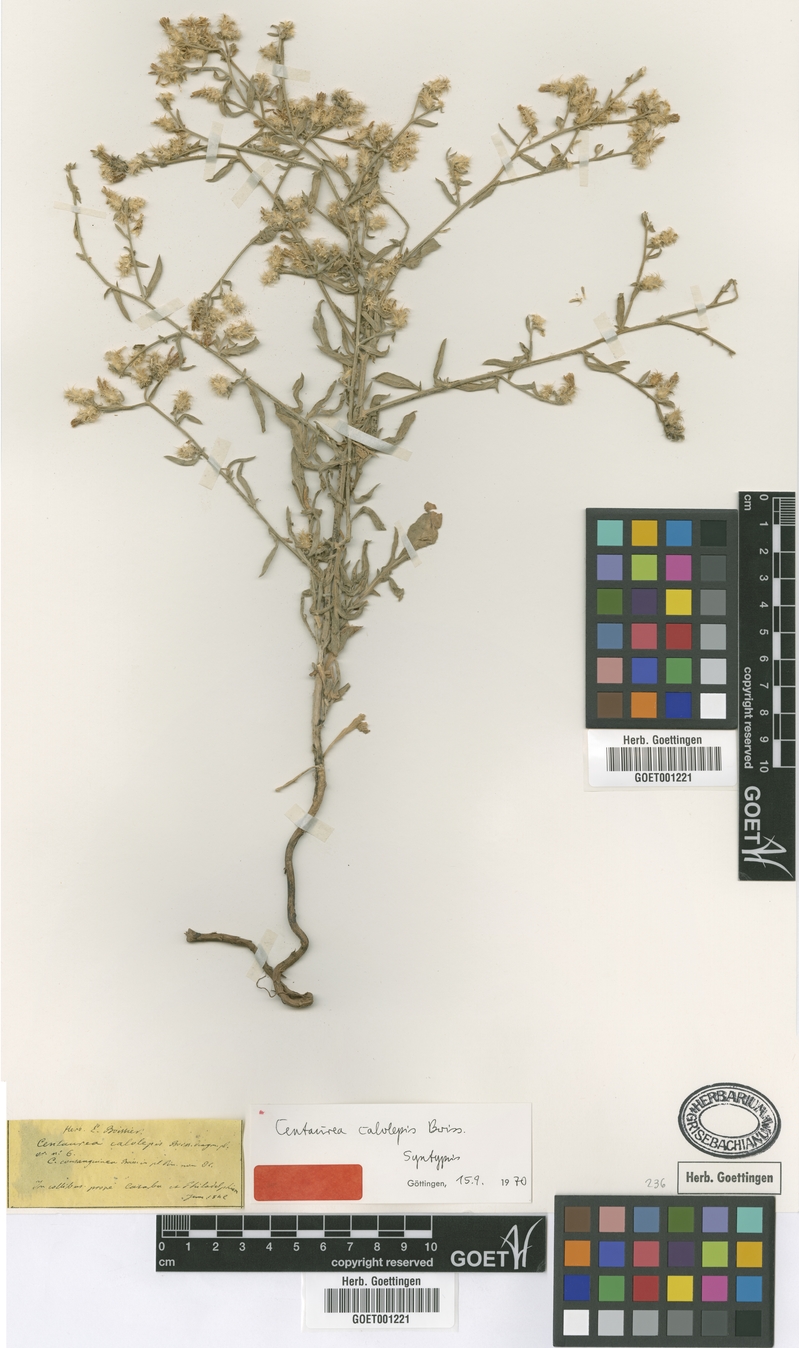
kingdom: Plantae
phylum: Tracheophyta
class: Magnoliopsida
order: Asterales
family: Asteraceae
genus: Centaurea
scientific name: Centaurea calolepis
